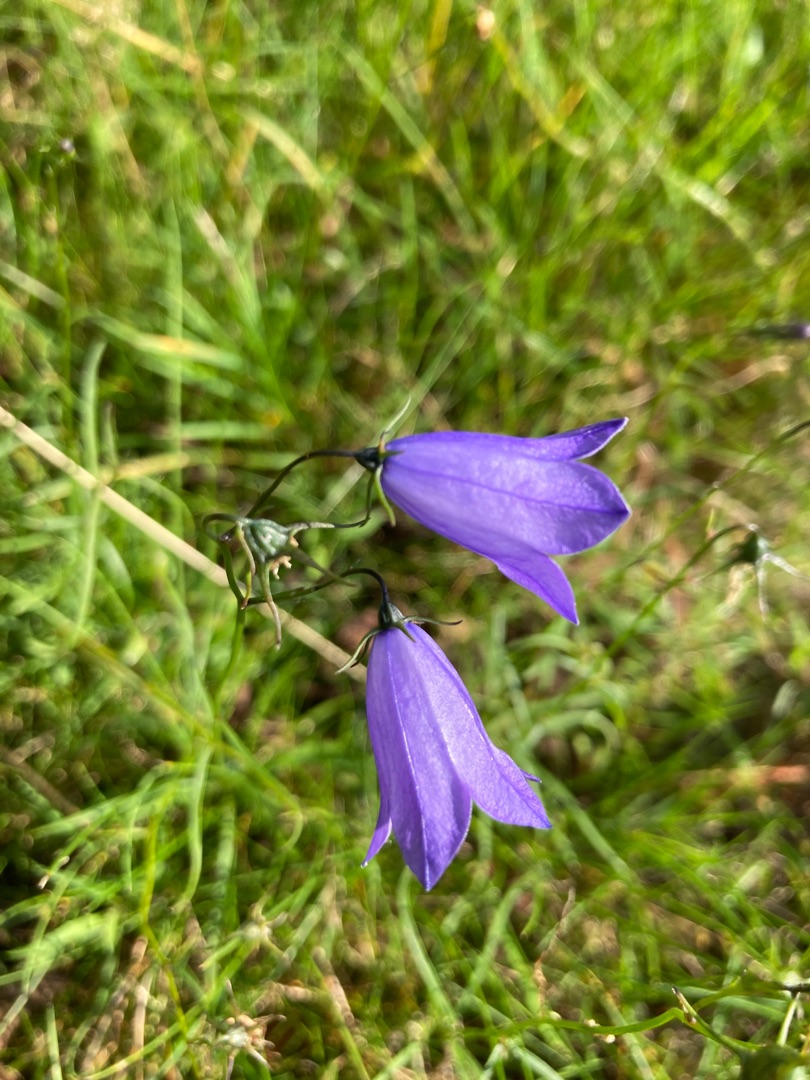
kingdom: Plantae
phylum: Tracheophyta
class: Magnoliopsida
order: Asterales
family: Campanulaceae
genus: Campanula
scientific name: Campanula rotundifolia
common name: Liden klokke
